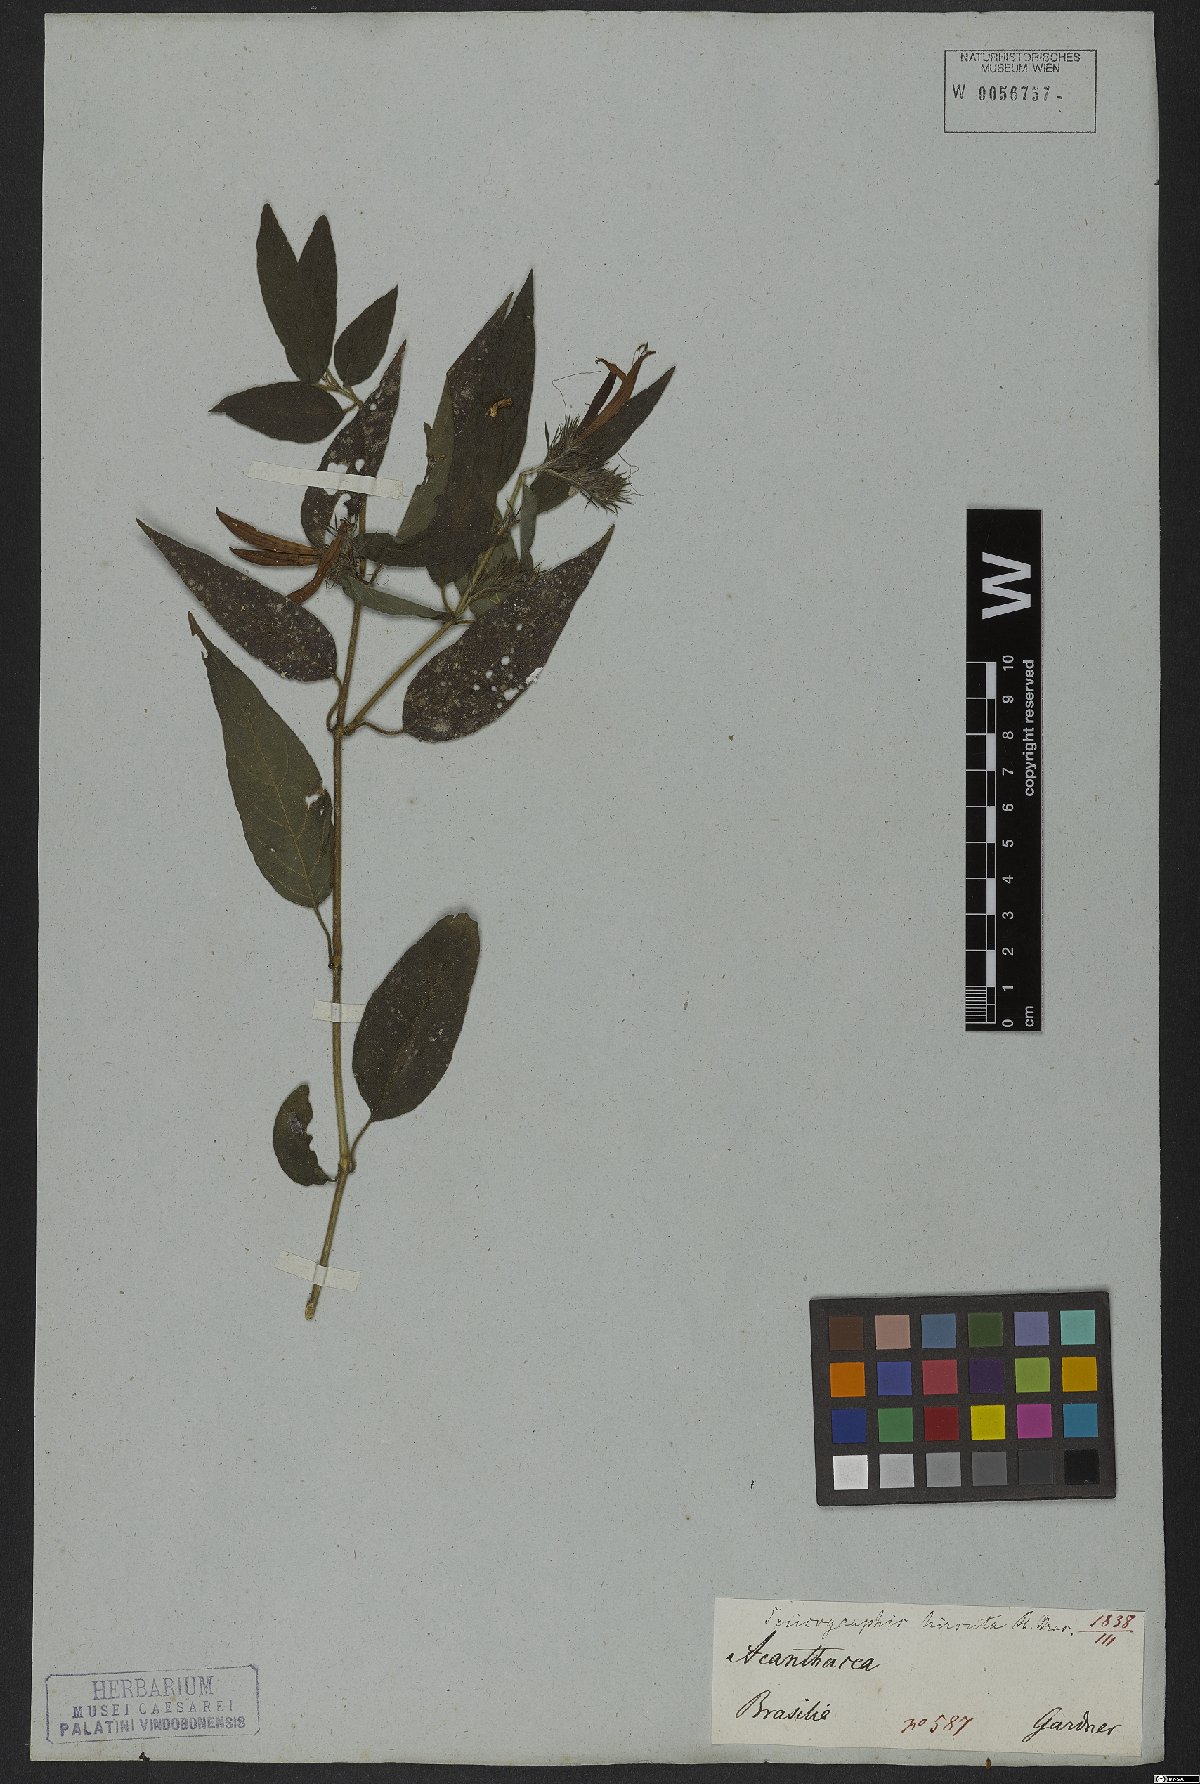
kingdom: Plantae
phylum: Tracheophyta
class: Magnoliopsida
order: Gentianales
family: Rubiaceae
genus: Gonzalagunia
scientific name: Gonzalagunia hirsuta
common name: Mata de mariposa
